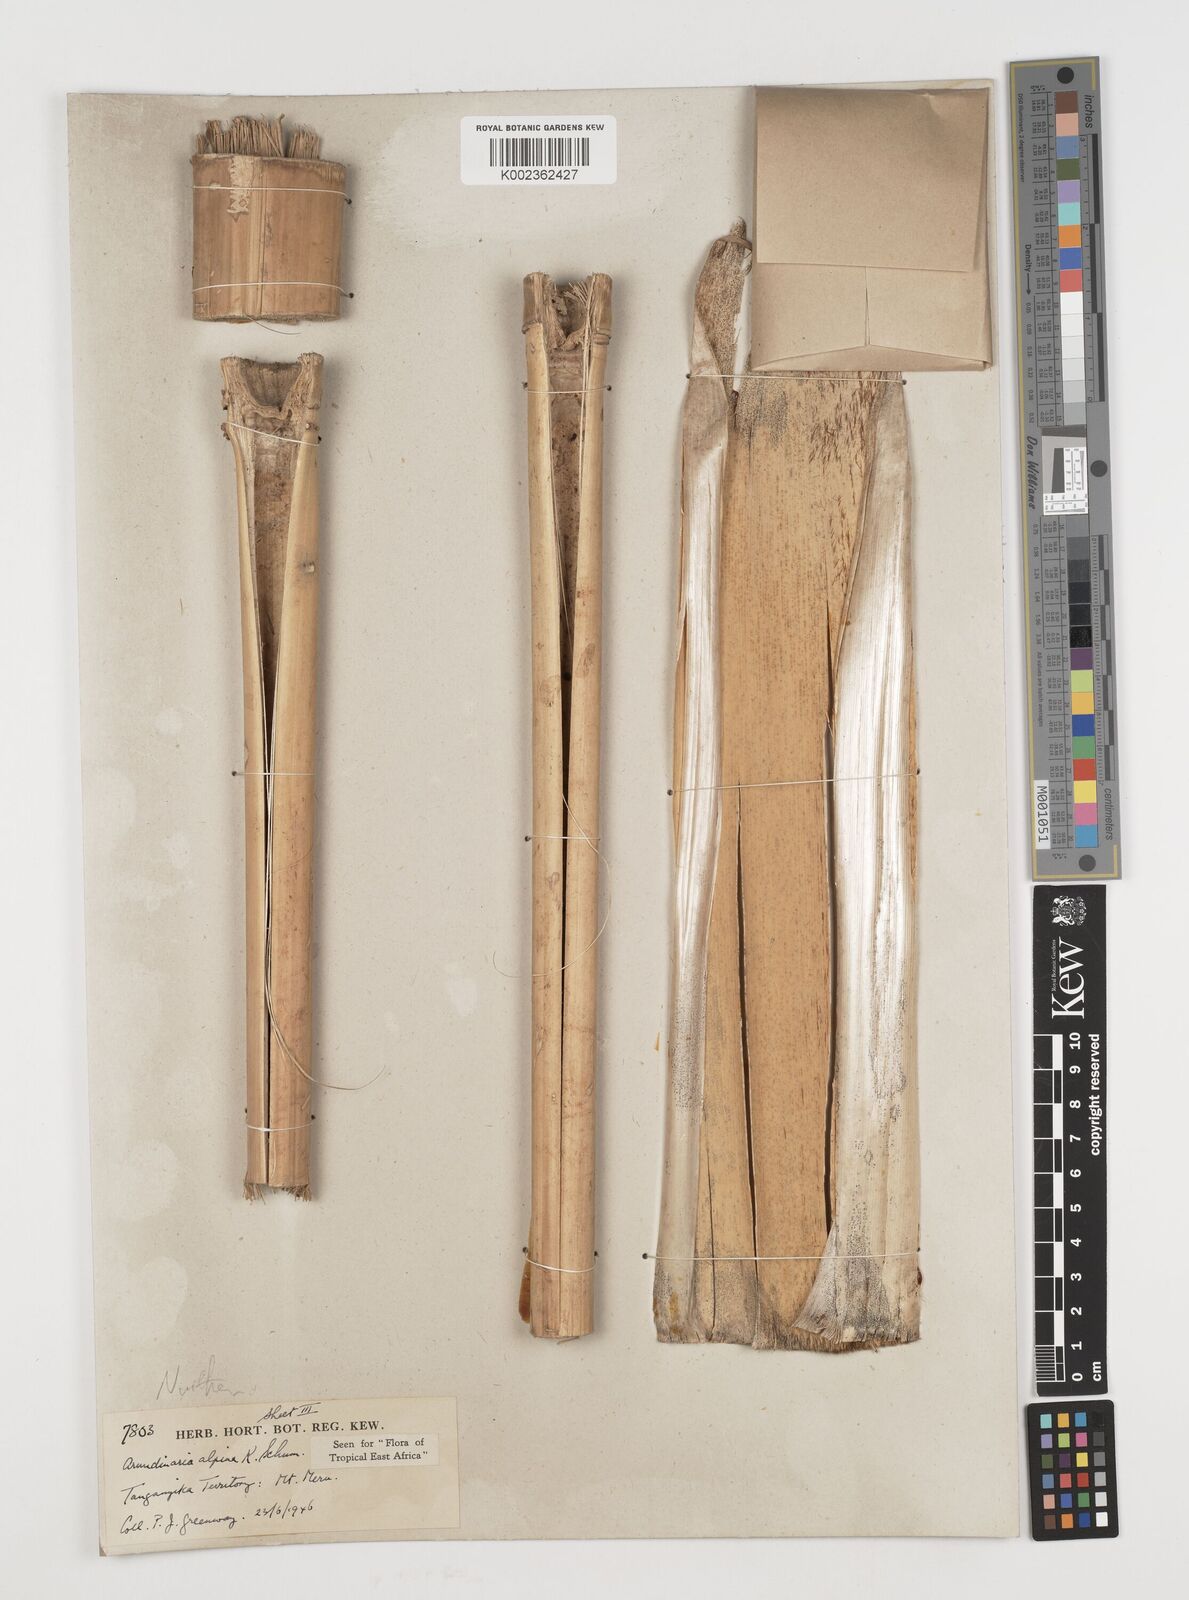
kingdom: Plantae
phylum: Tracheophyta
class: Liliopsida
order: Poales
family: Poaceae
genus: Oldeania
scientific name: Oldeania alpina
